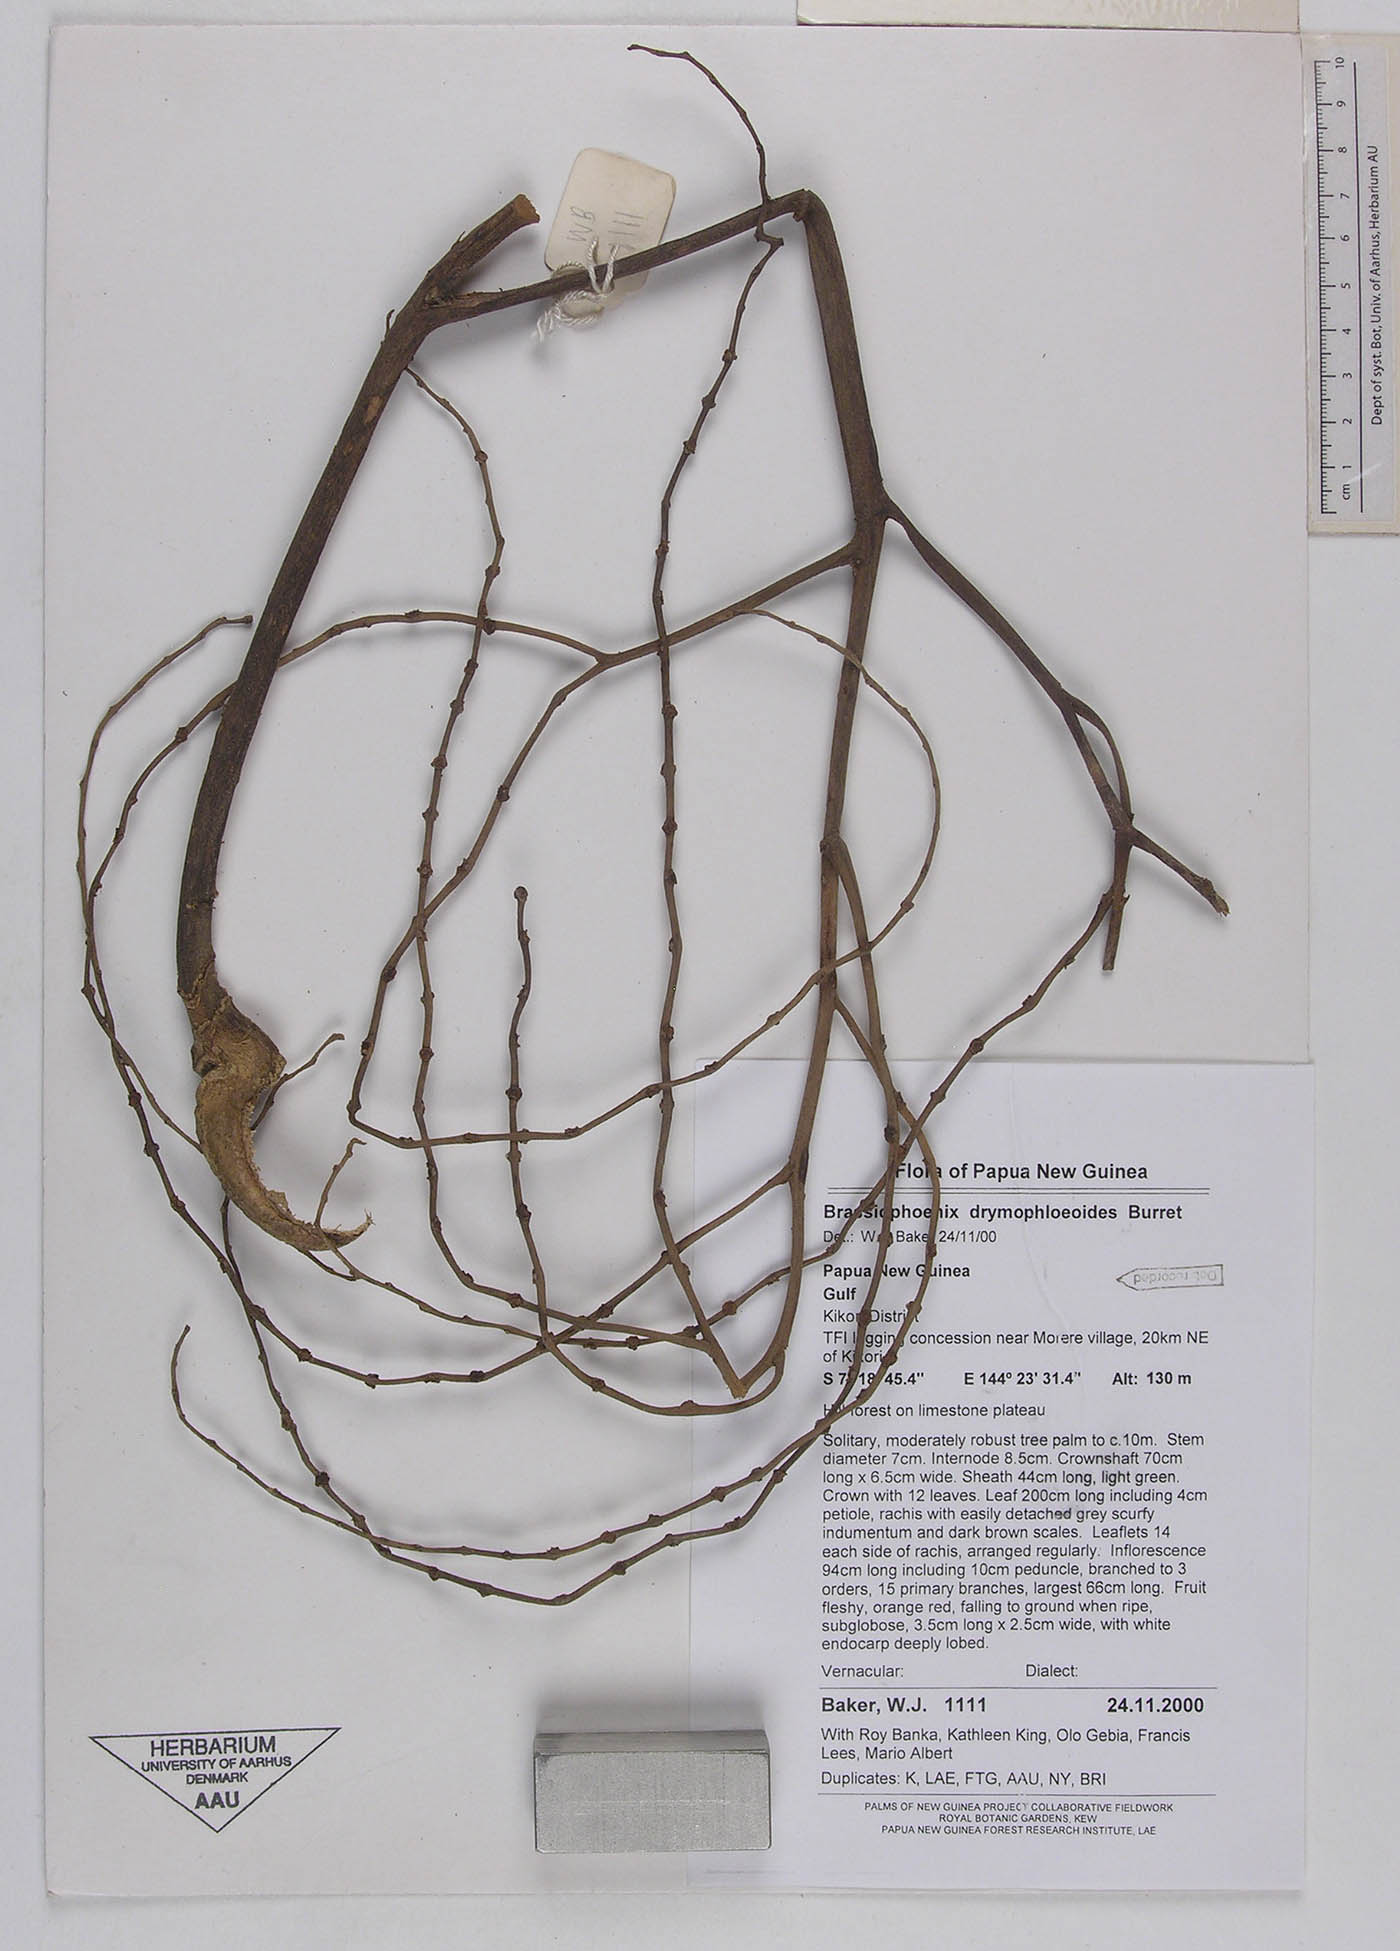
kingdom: Plantae
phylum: Tracheophyta
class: Liliopsida
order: Arecales
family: Arecaceae
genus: Brassiophoenix
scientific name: Brassiophoenix drymophloeoides
